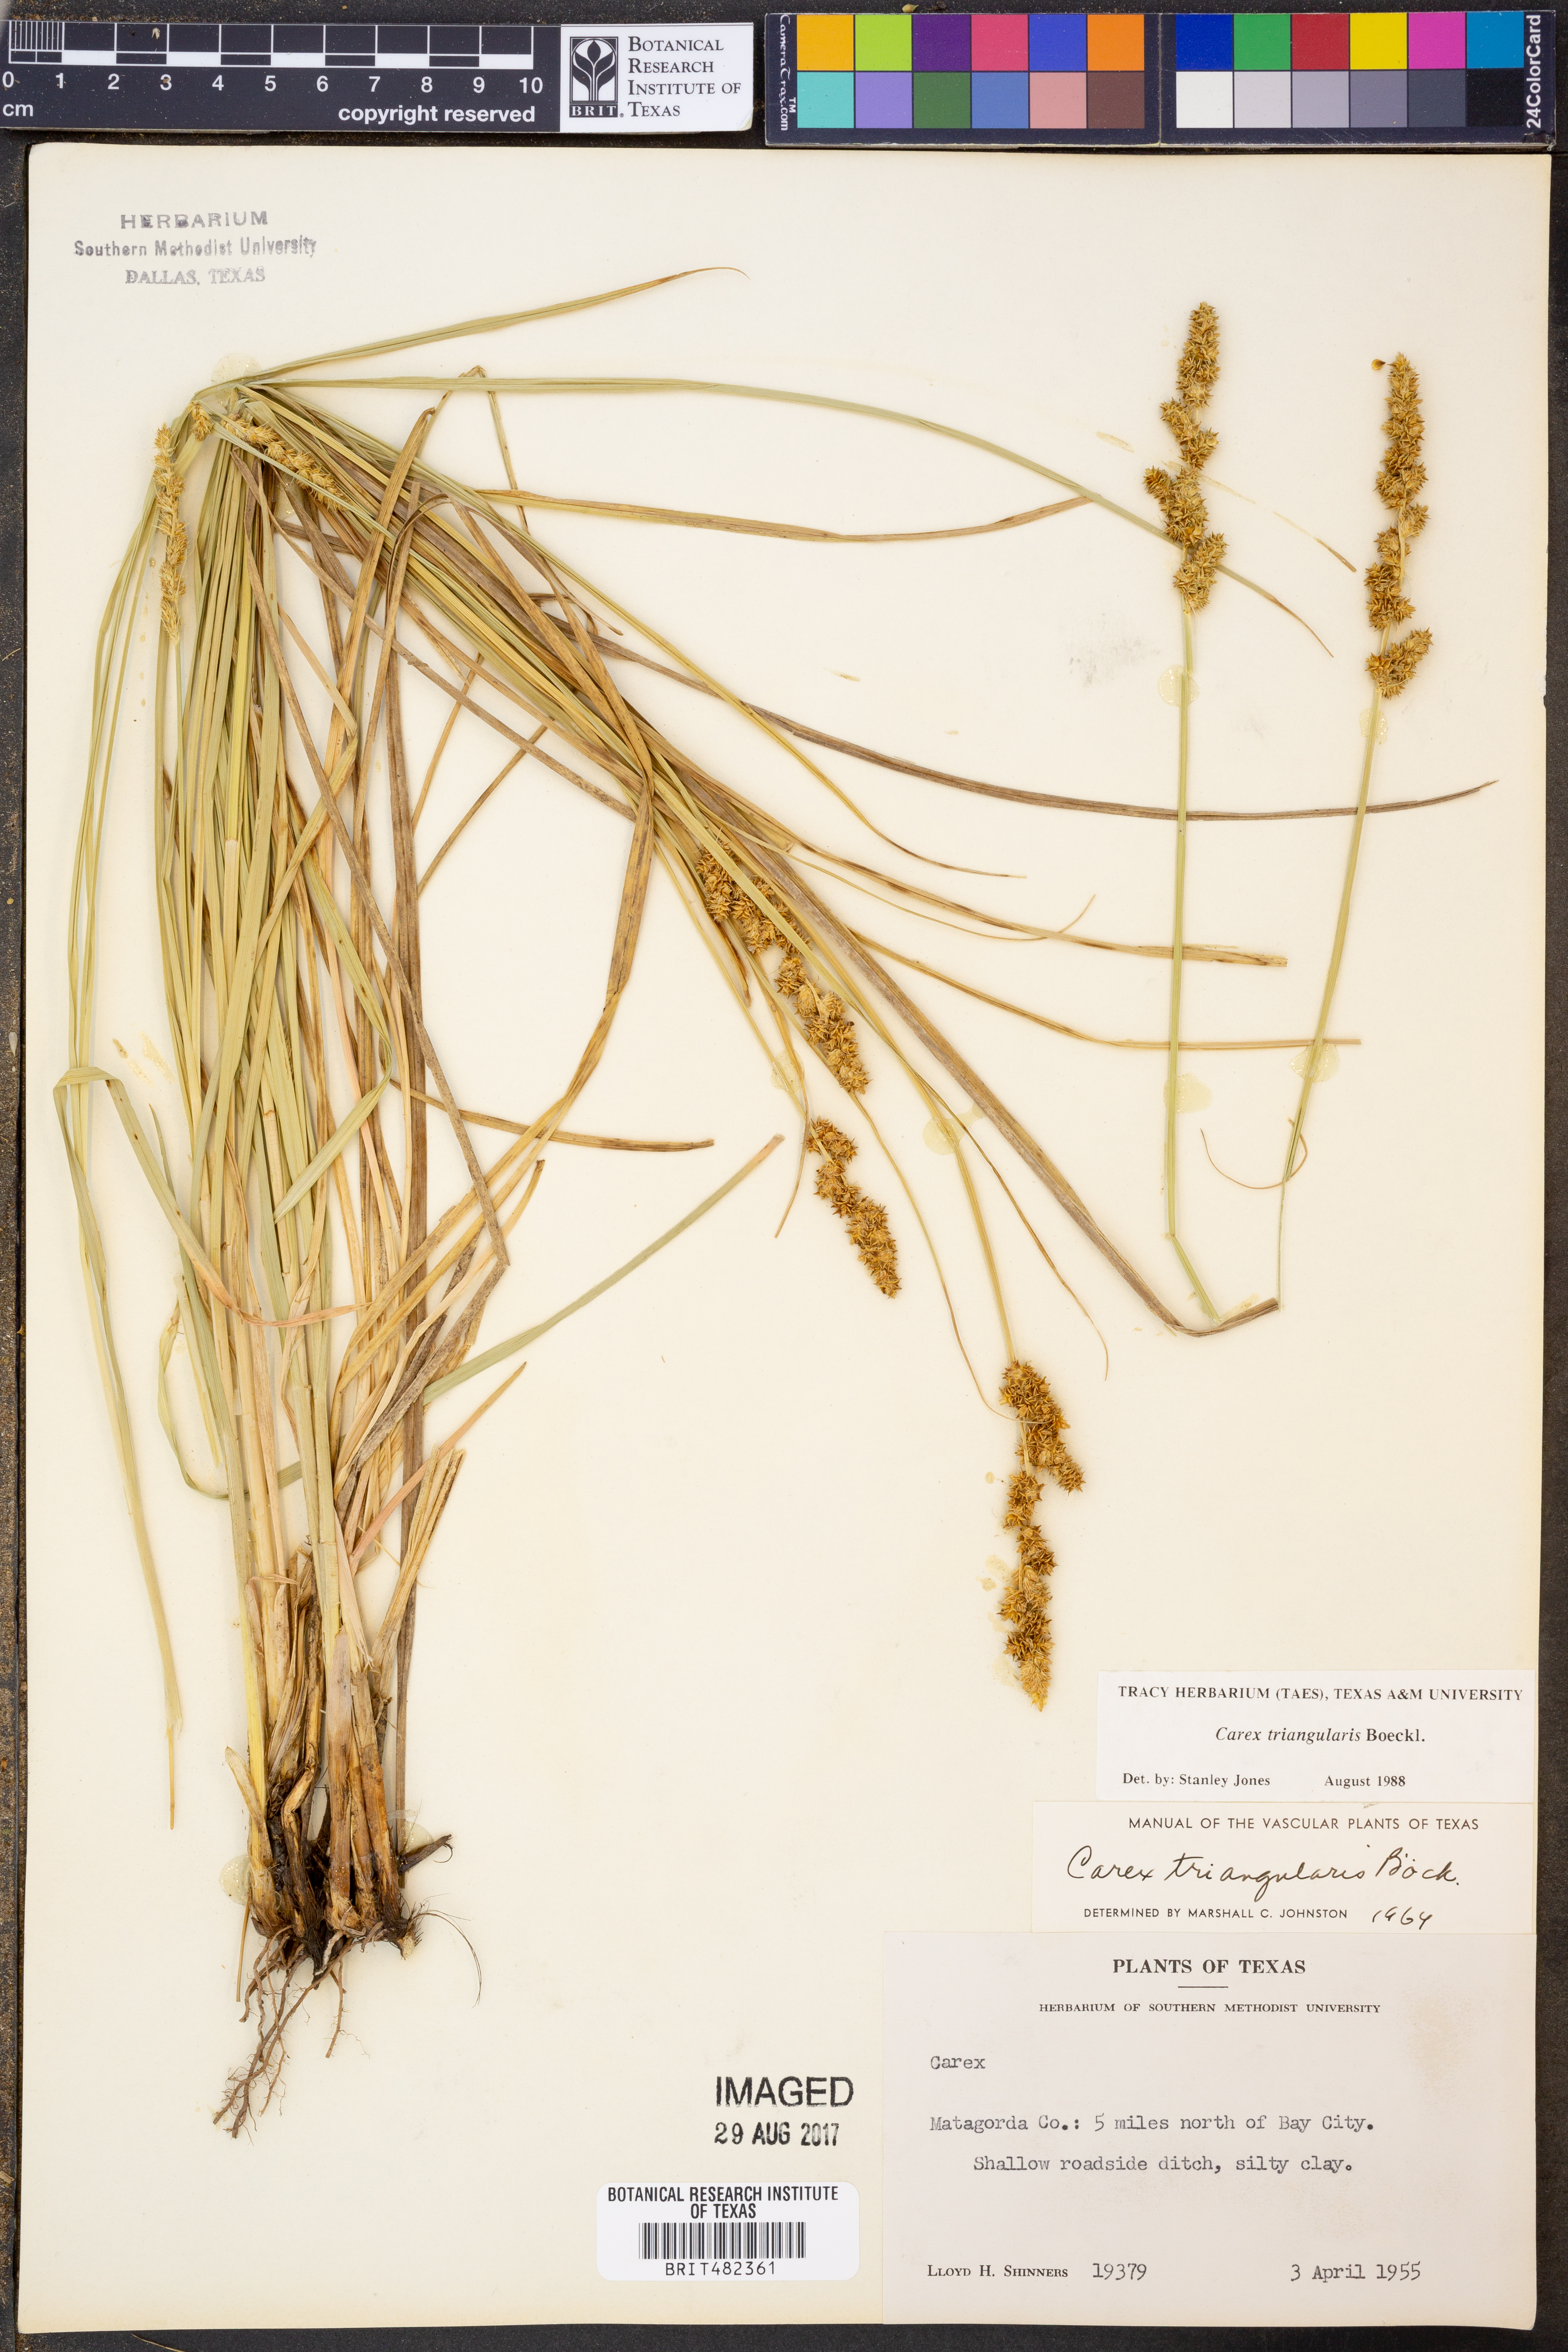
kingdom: Plantae
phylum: Tracheophyta
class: Liliopsida
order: Poales
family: Cyperaceae
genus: Carex
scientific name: Carex triangularis
